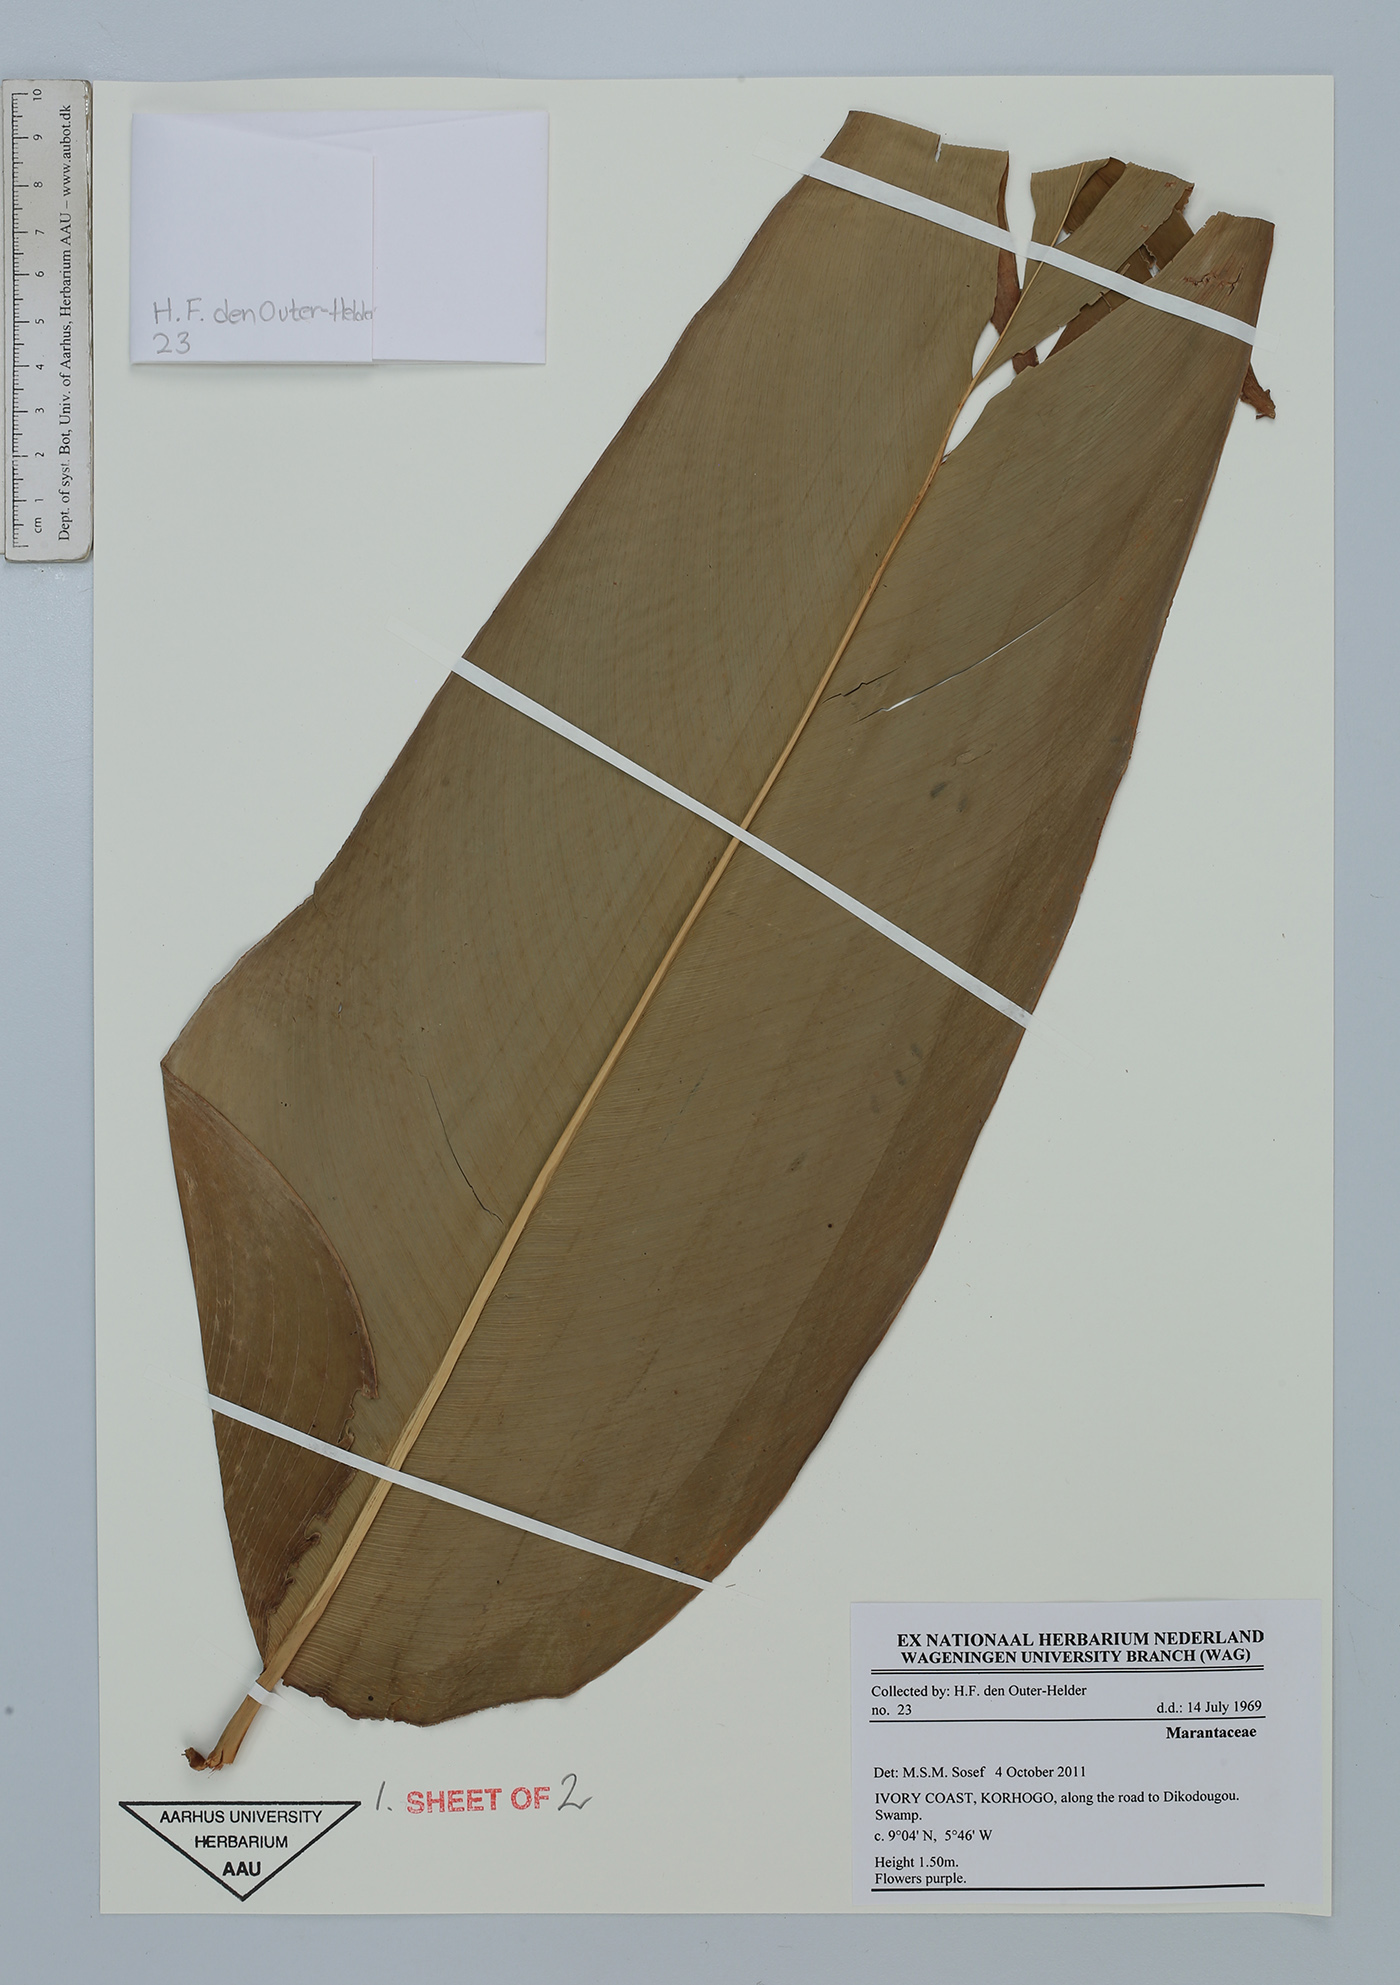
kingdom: Plantae
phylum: Tracheophyta
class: Liliopsida
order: Zingiberales
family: Marantaceae
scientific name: Marantaceae
